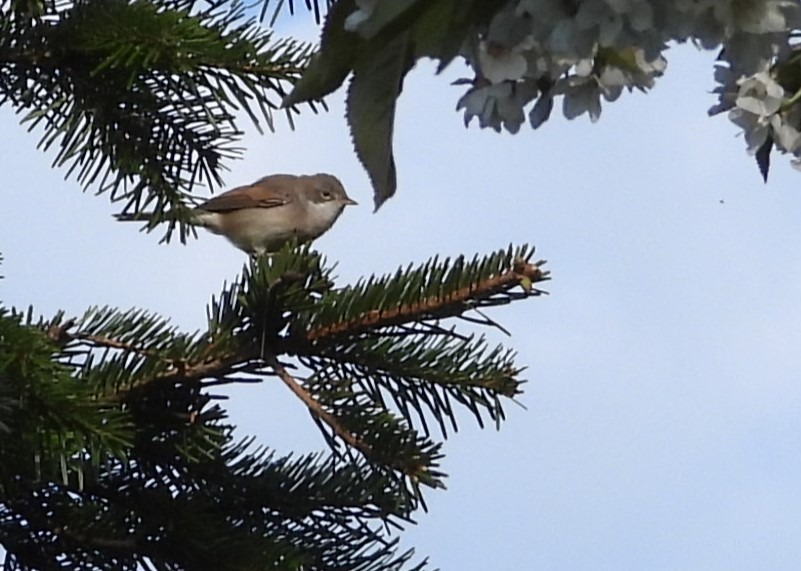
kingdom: Animalia
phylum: Chordata
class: Aves
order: Passeriformes
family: Sylviidae
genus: Sylvia
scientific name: Sylvia communis
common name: Tornsanger
